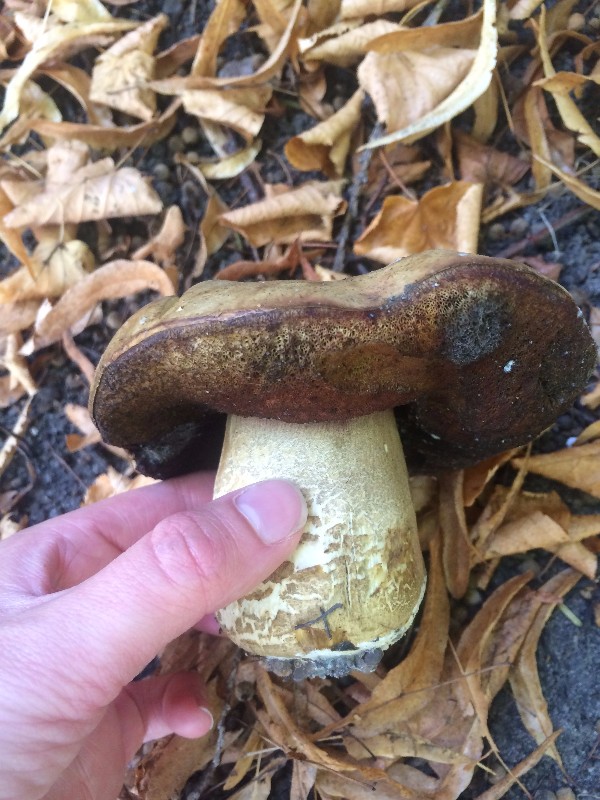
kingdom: Fungi
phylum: Basidiomycota
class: Agaricomycetes
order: Boletales
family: Boletaceae
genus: Suillellus
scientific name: Suillellus luridus
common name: netstokket indigorørhat
